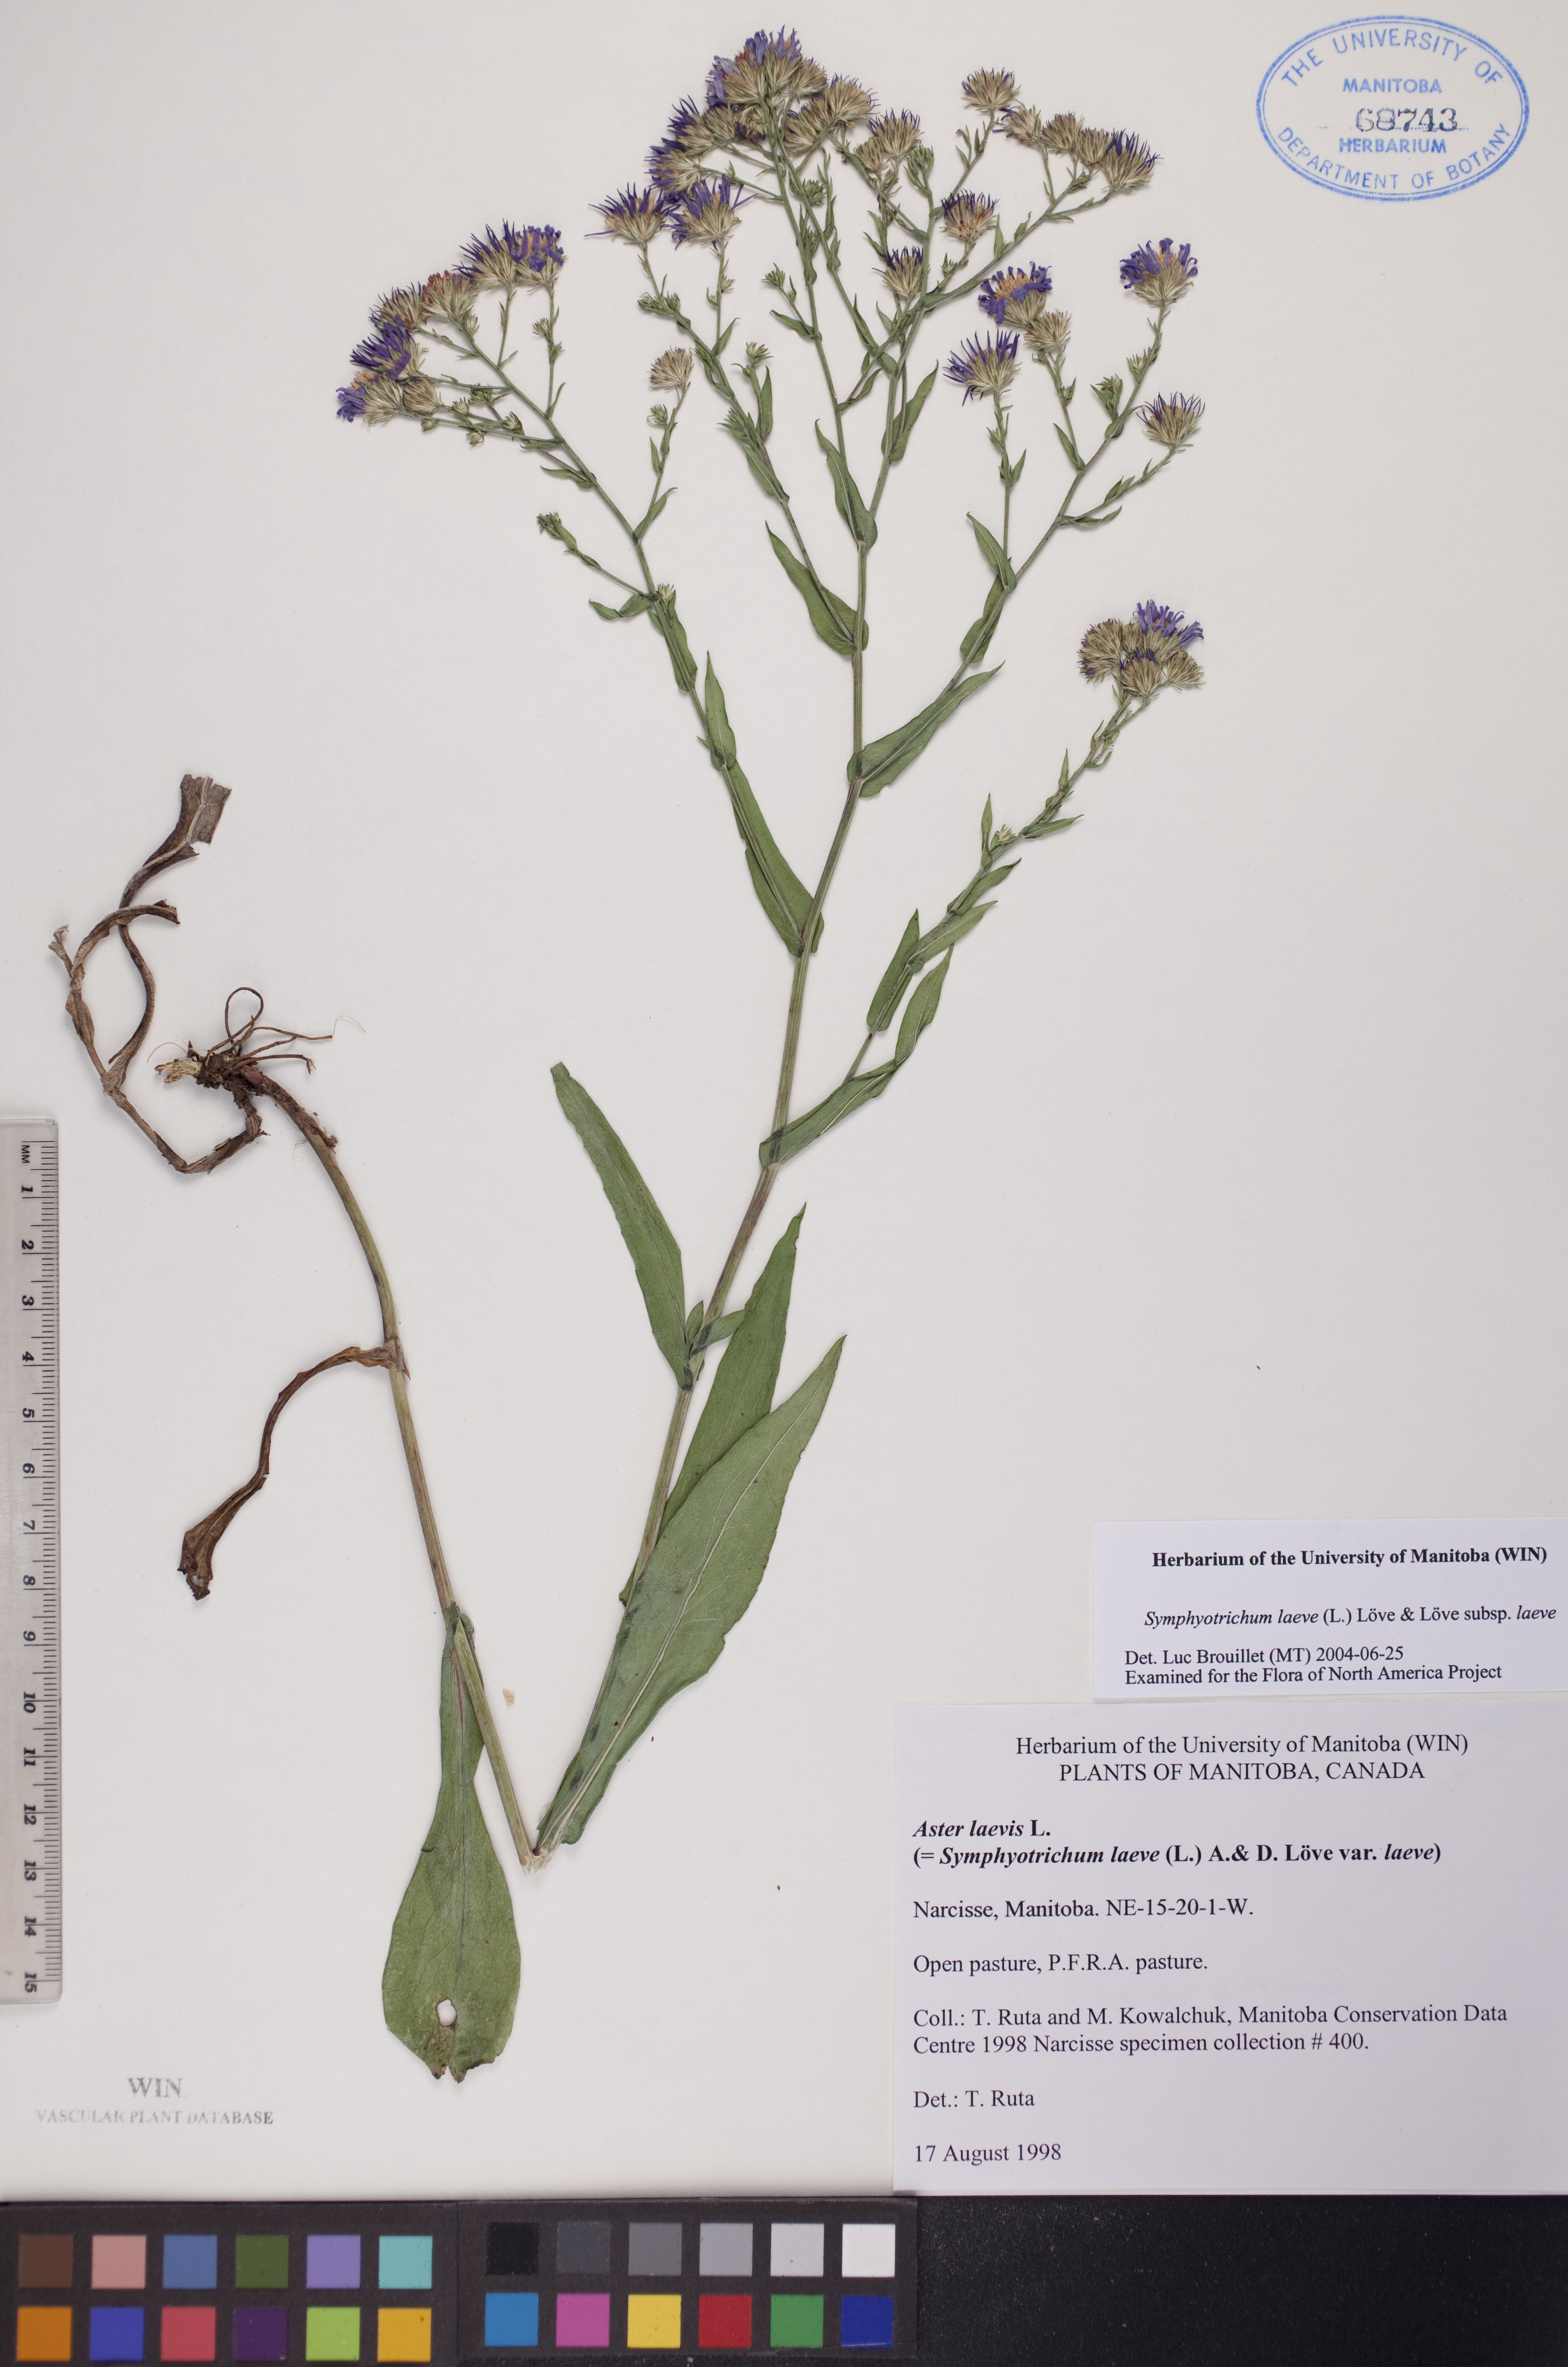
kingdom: Plantae
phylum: Tracheophyta
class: Magnoliopsida
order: Asterales
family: Asteraceae
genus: Symphyotrichum
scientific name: Symphyotrichum laeve
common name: Glaucous aster
